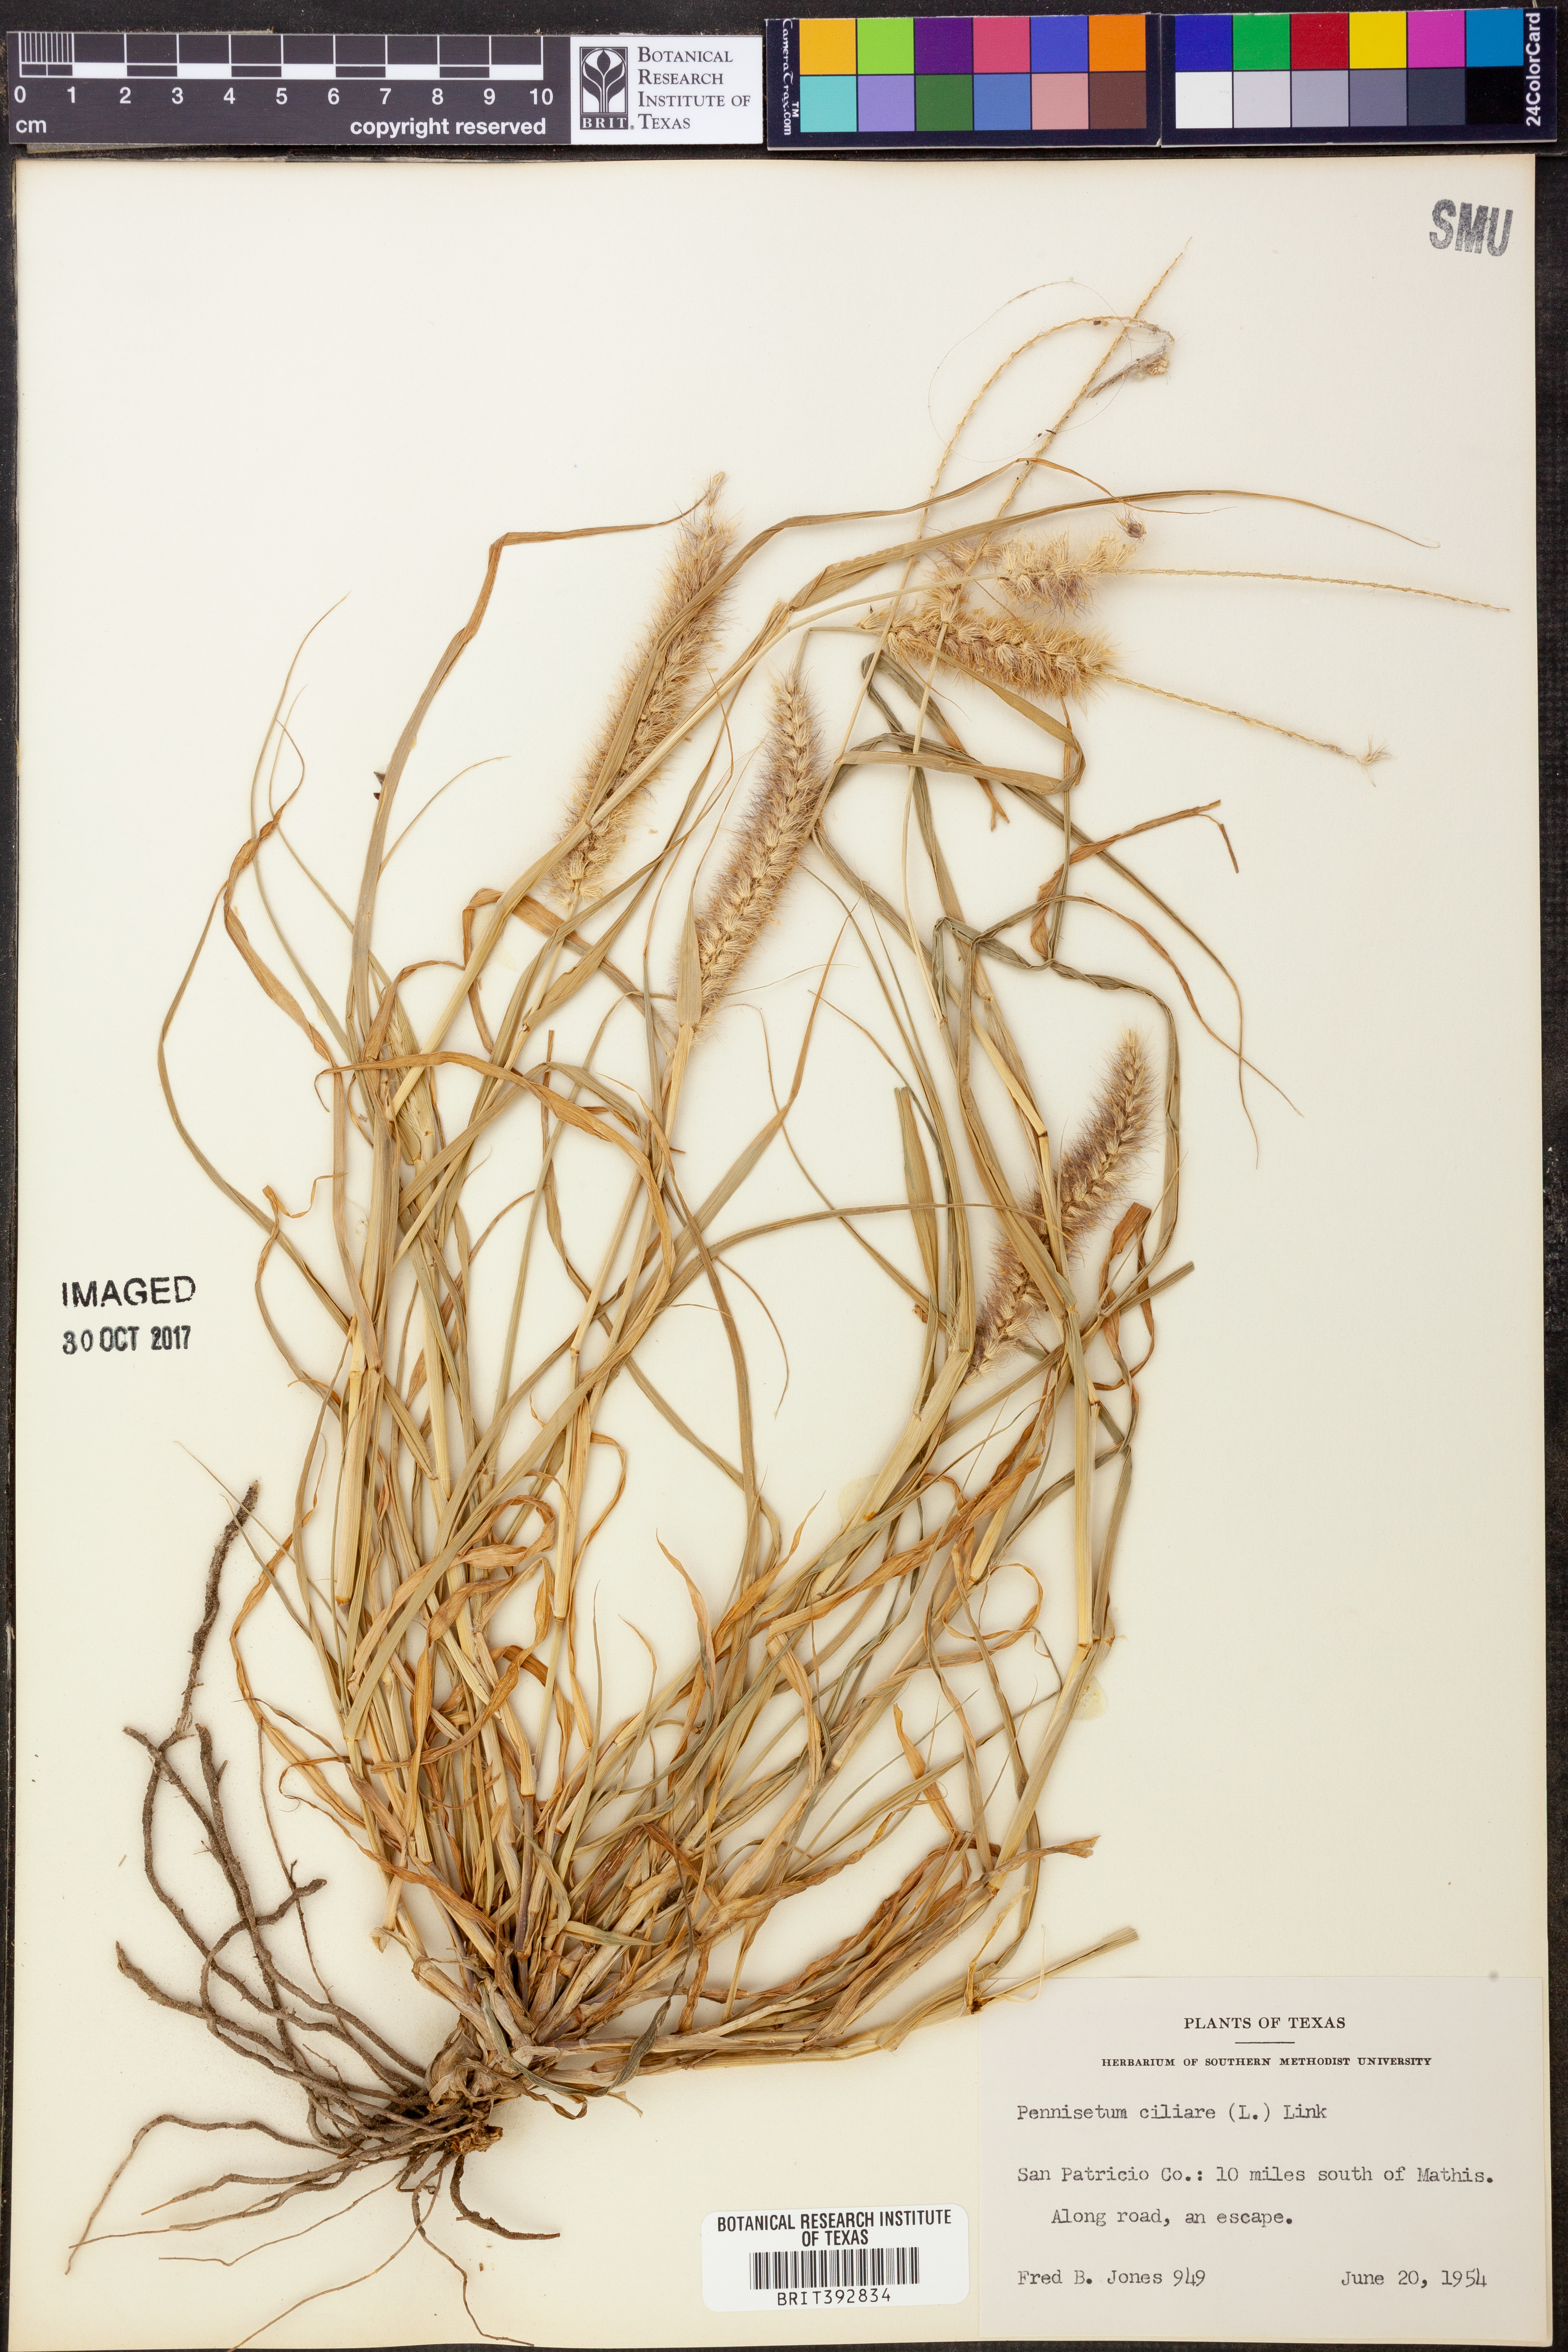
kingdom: Plantae
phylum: Tracheophyta
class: Liliopsida
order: Poales
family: Poaceae
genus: Cenchrus
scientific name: Cenchrus ciliaris
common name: Buffelgrass
